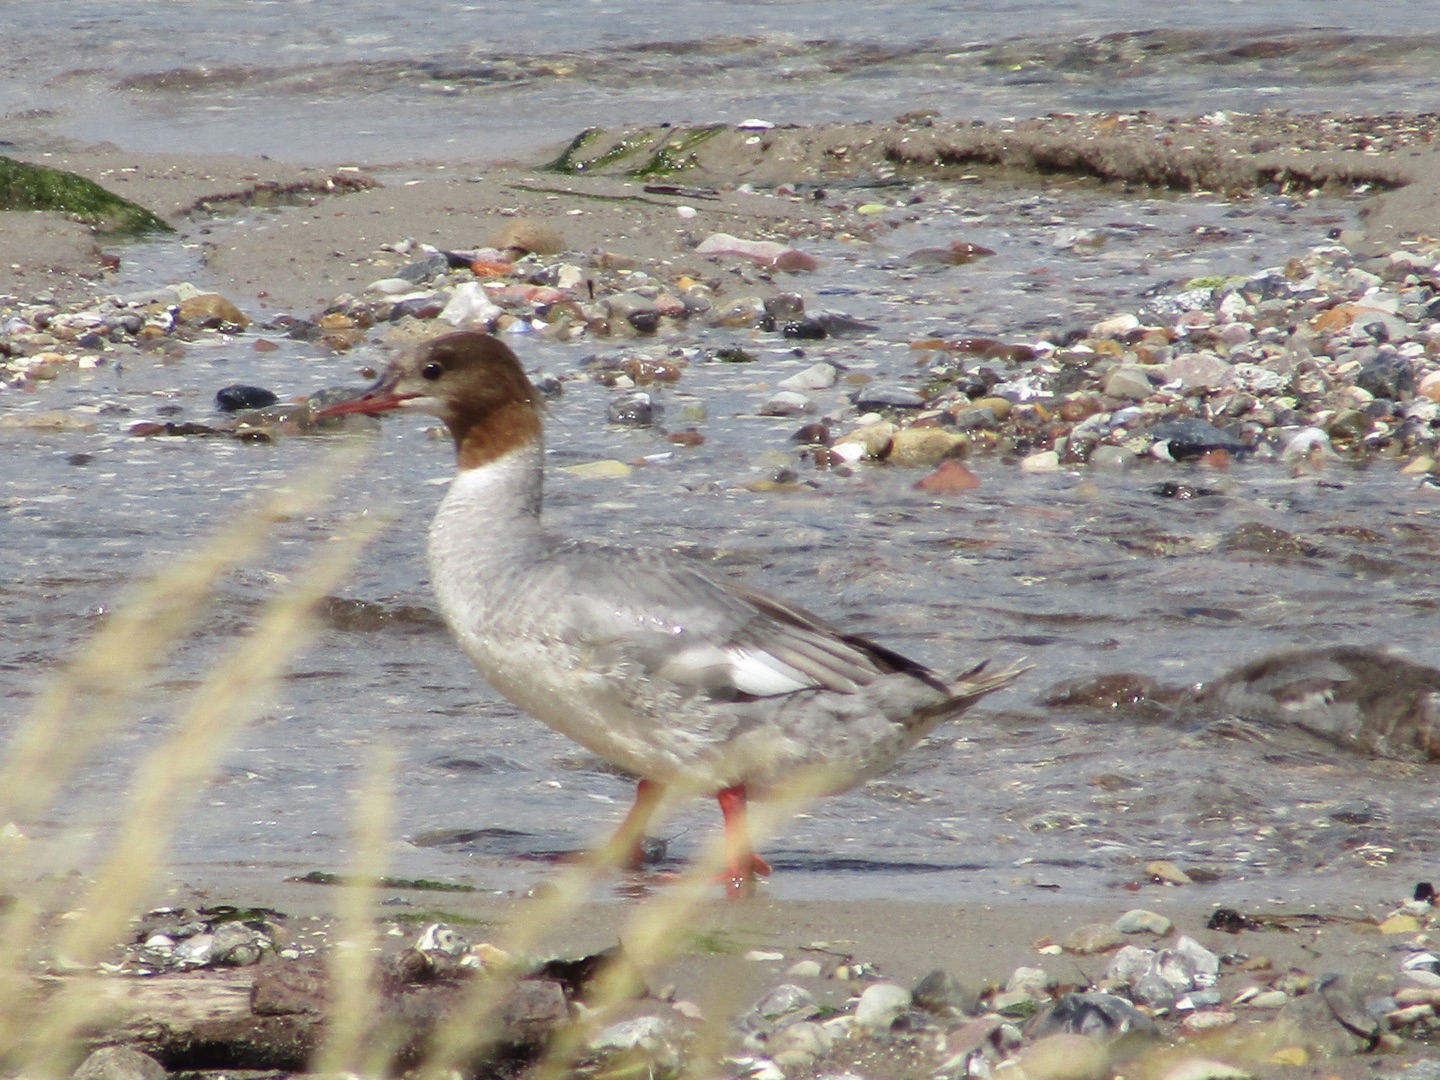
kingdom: Animalia
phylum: Chordata
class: Aves
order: Anseriformes
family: Anatidae
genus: Mergus
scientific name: Mergus merganser
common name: Stor skallesluger
